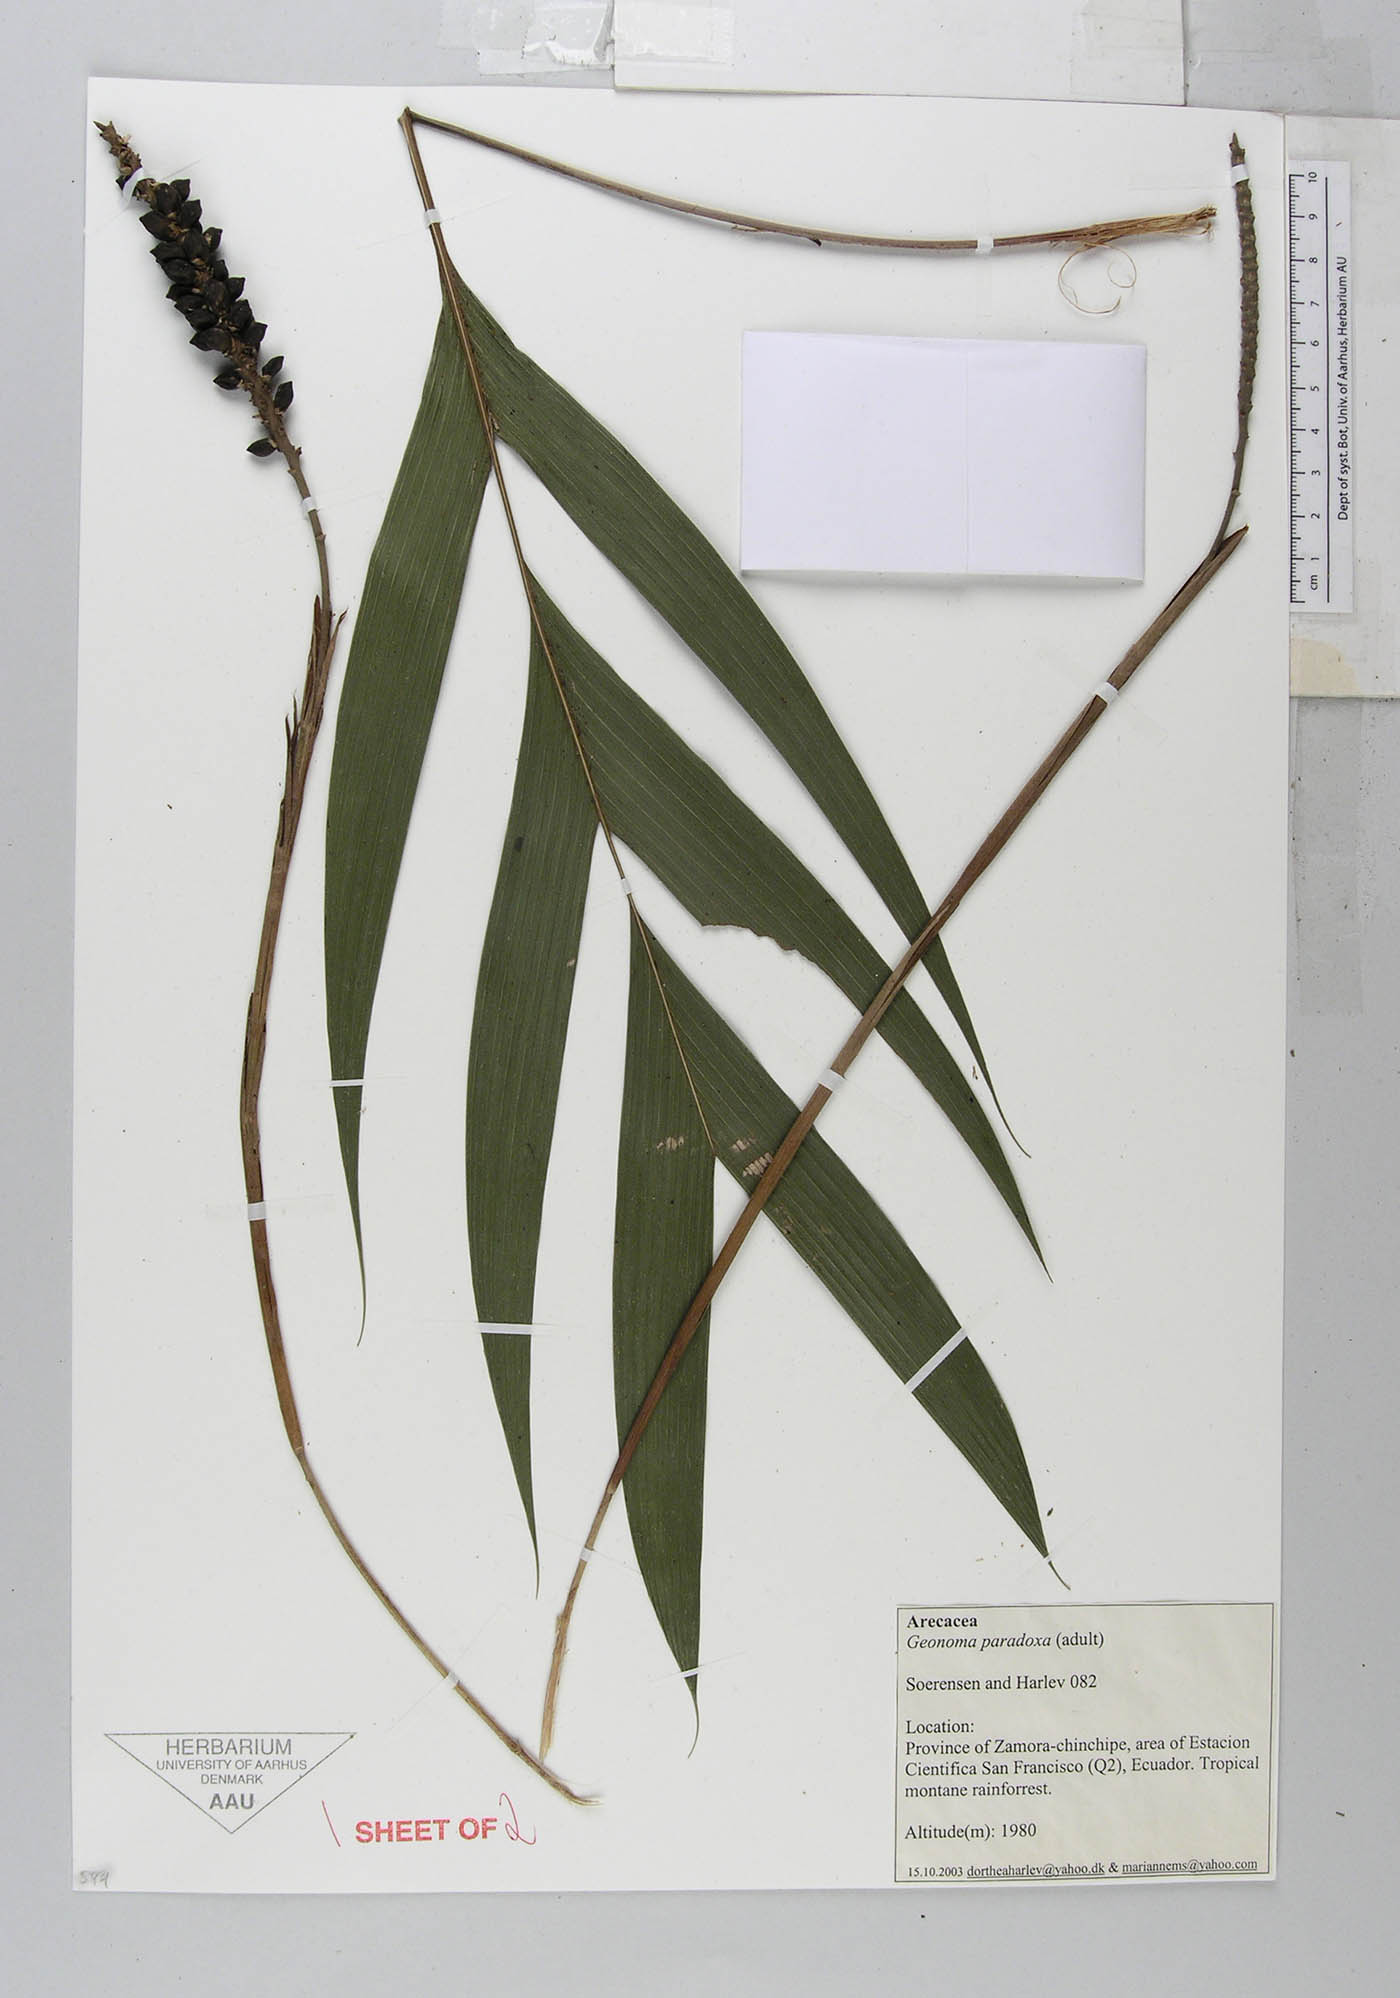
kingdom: Plantae
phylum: Tracheophyta
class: Liliopsida
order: Arecales
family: Arecaceae
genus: Geonoma
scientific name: Geonoma lehmannii
